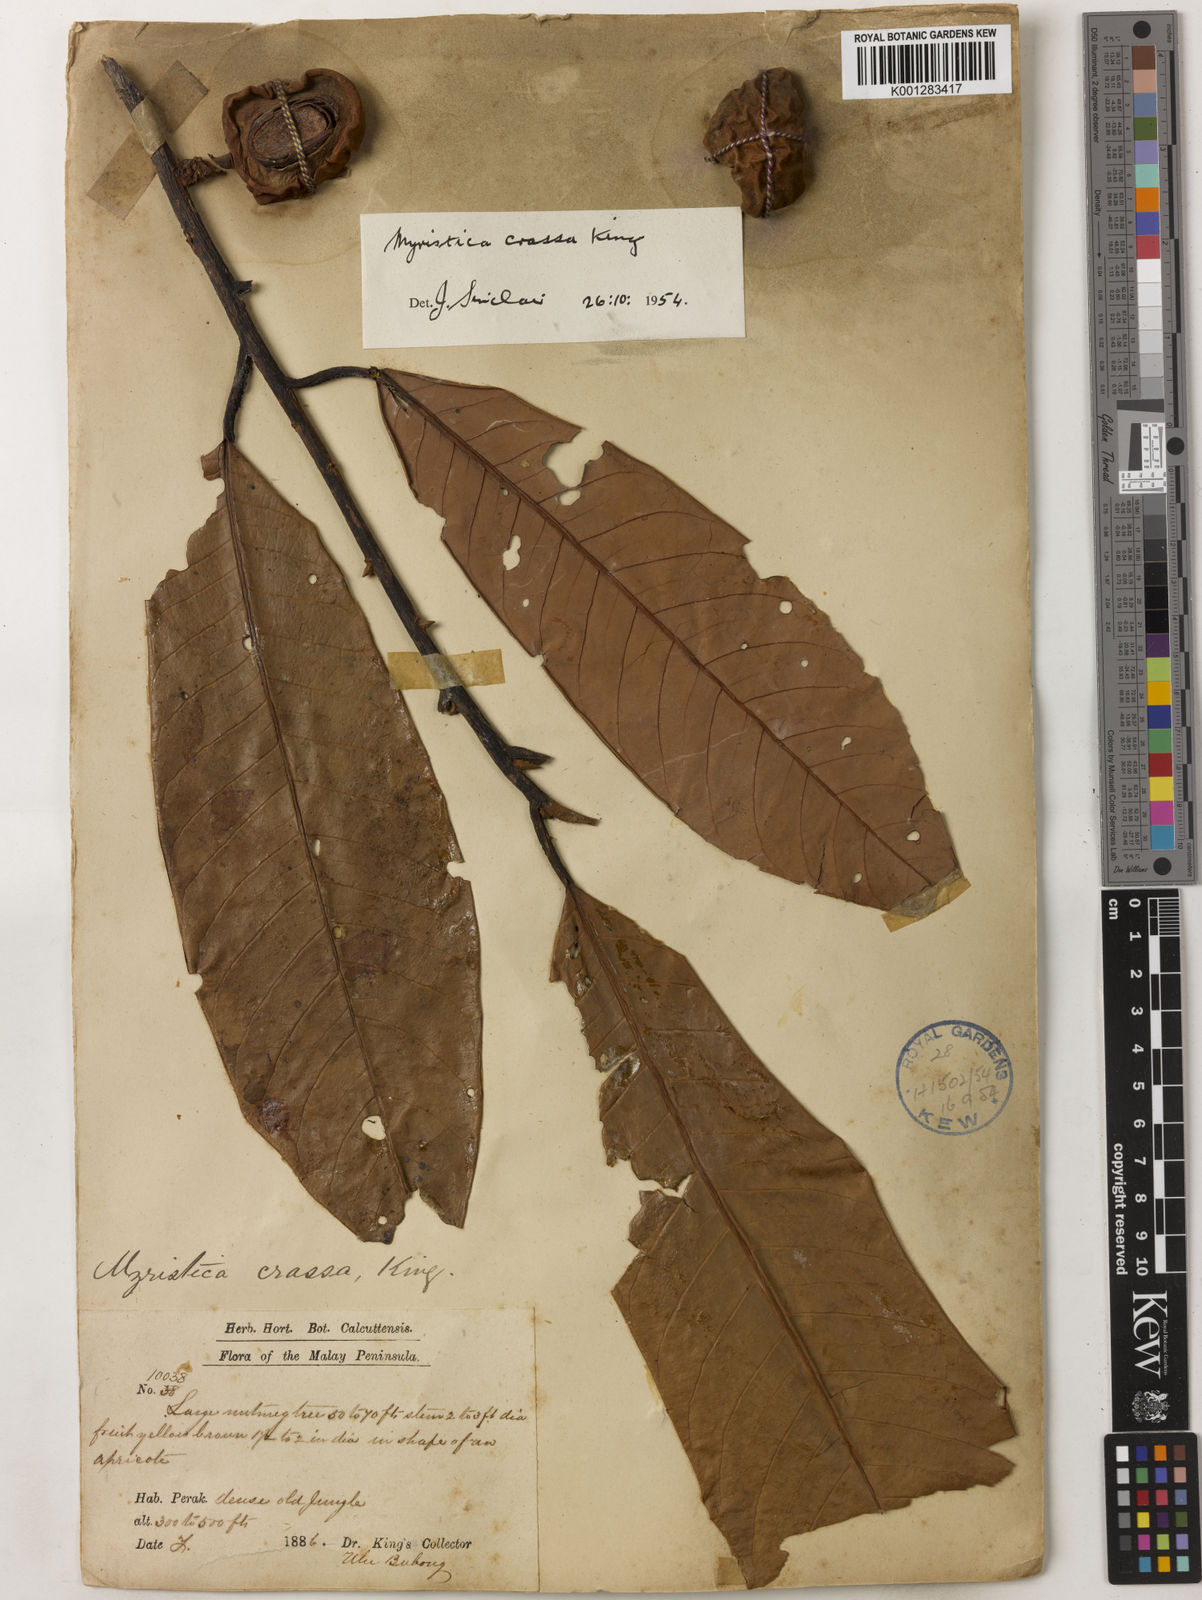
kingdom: Plantae
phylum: Tracheophyta
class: Magnoliopsida
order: Magnoliales
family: Myristicaceae
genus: Myristica
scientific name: Myristica crassa
